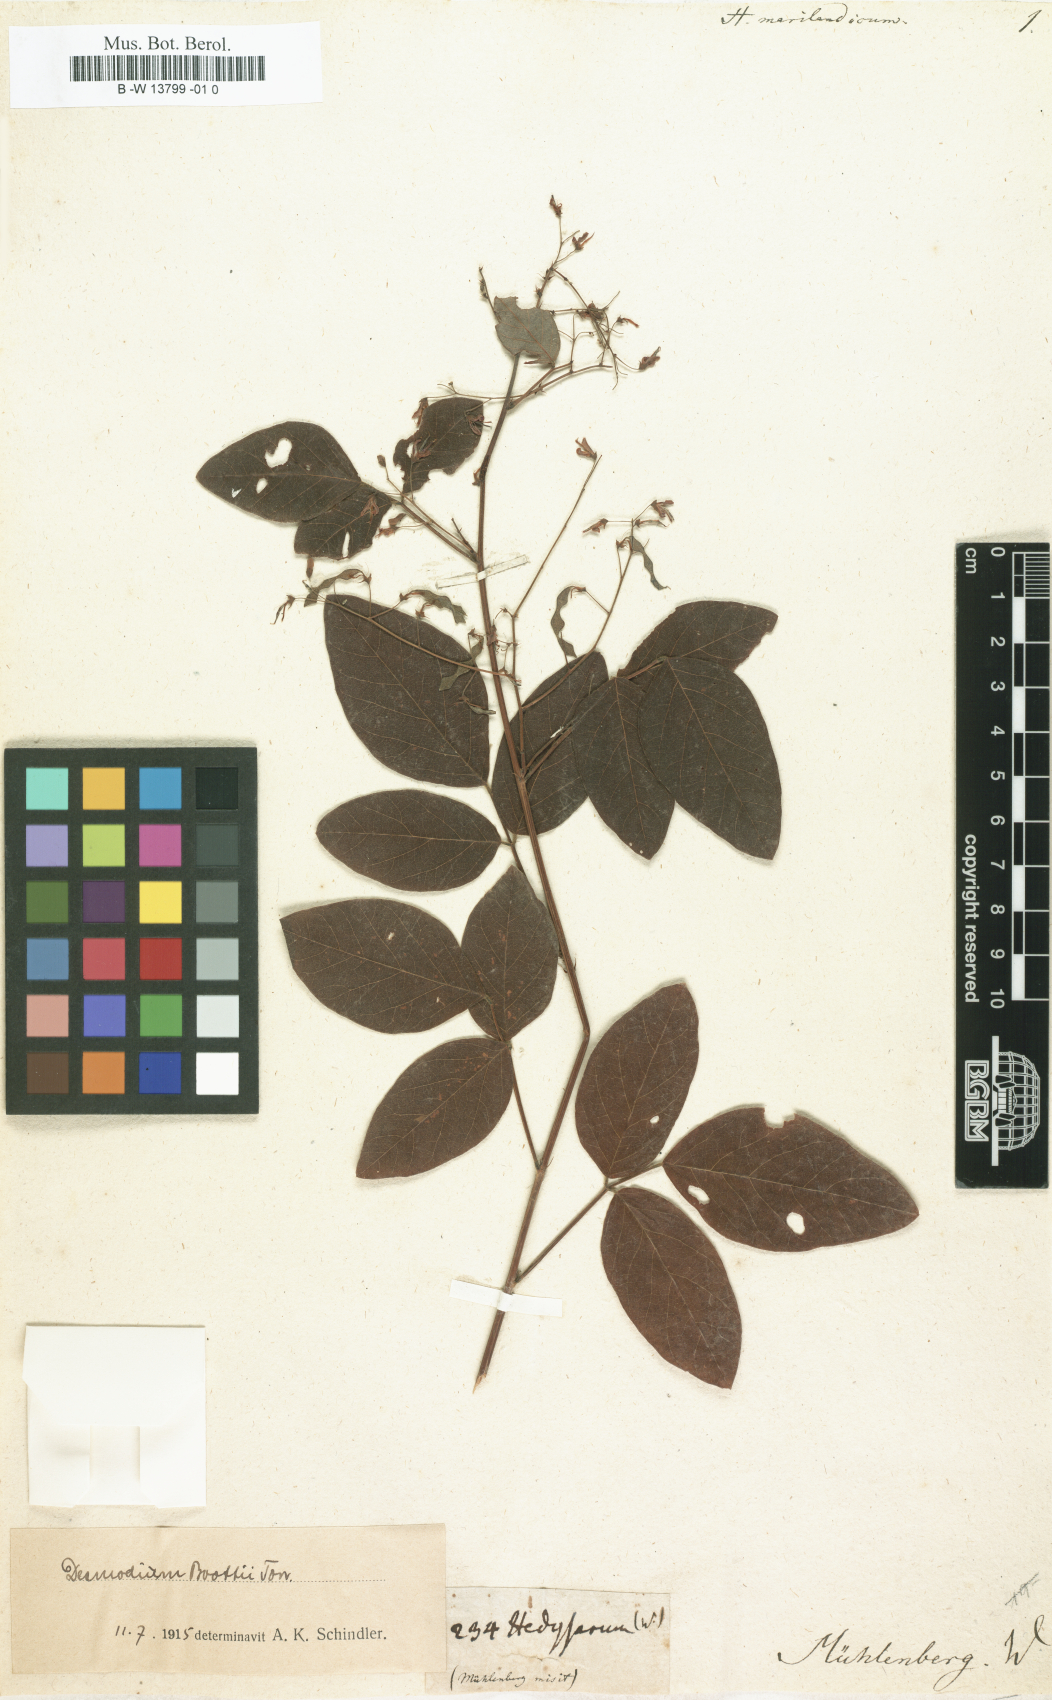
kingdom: Plantae
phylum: Tracheophyta
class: Magnoliopsida
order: Fabales
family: Fabaceae
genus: Desmodium
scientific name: Desmodium marilandicum
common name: Maryland tick-trefoil
